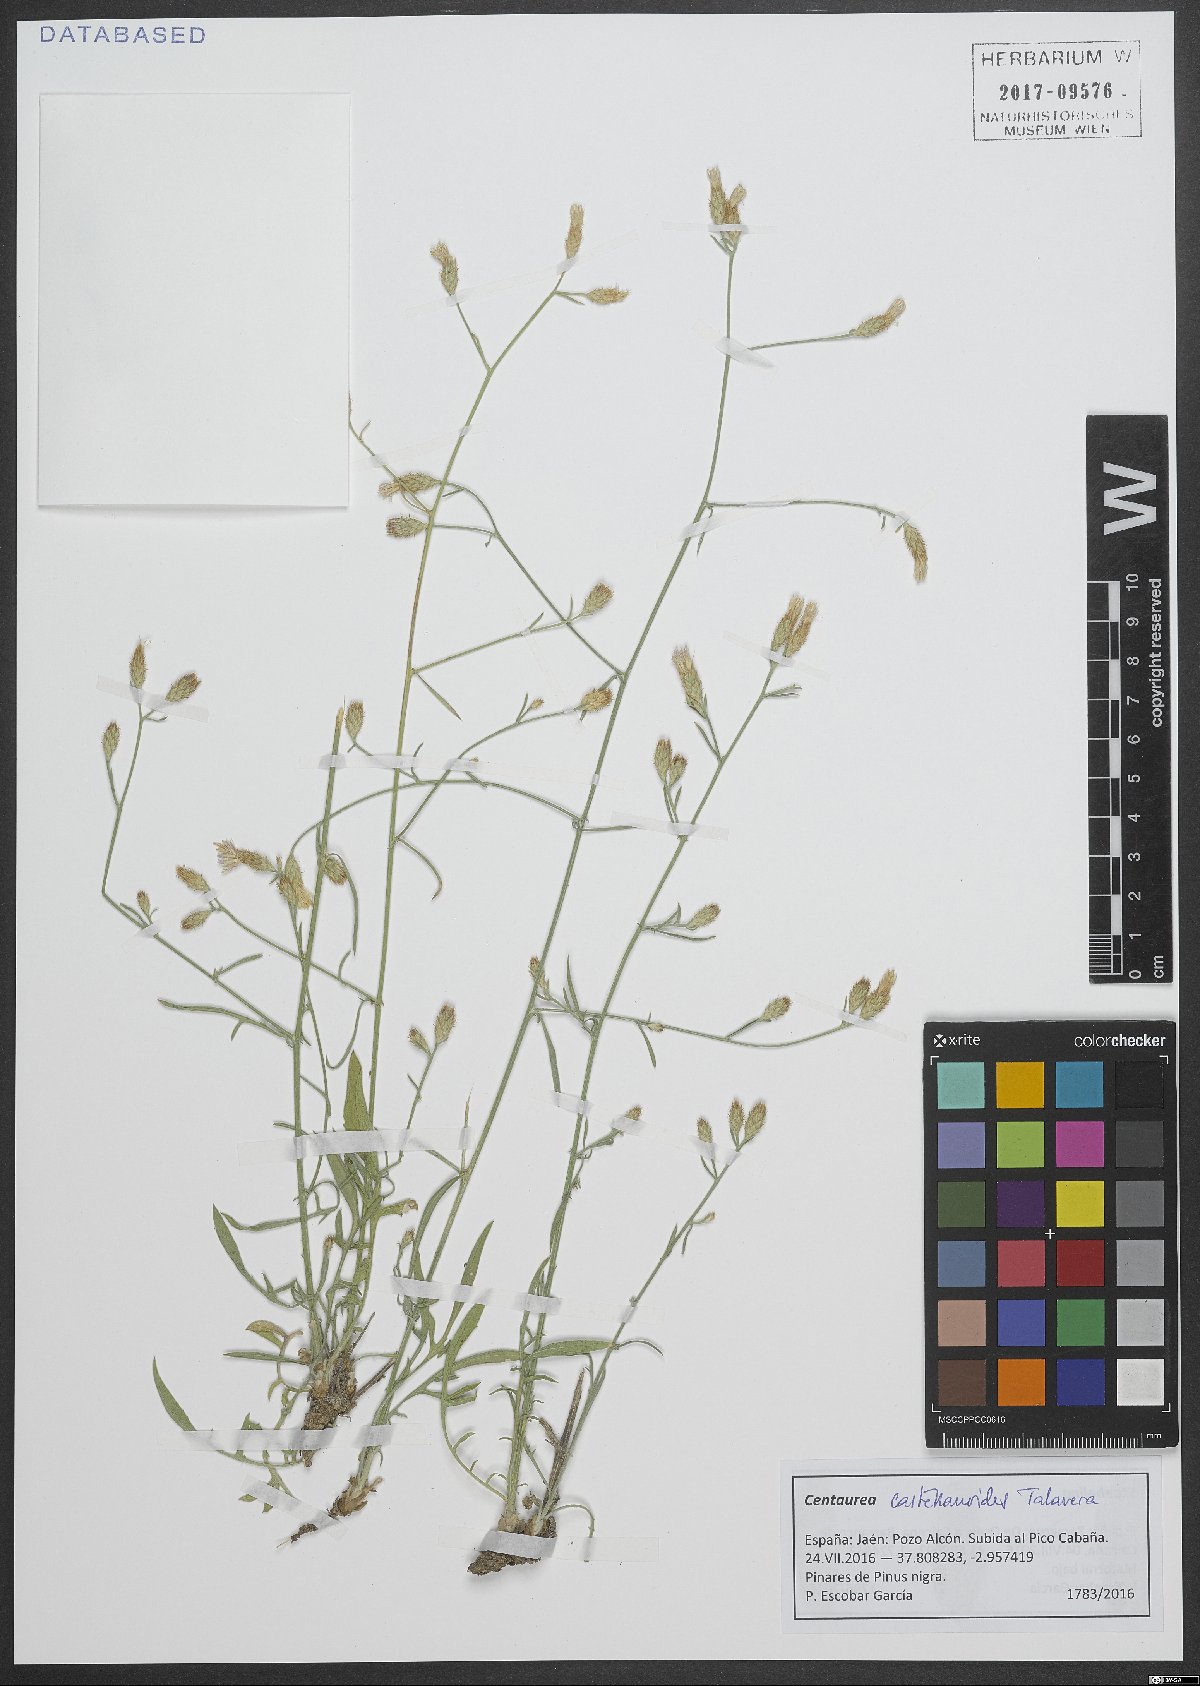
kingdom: Plantae
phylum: Tracheophyta
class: Magnoliopsida
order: Asterales
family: Asteraceae
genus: Centaurea
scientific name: Centaurea castellanoides
